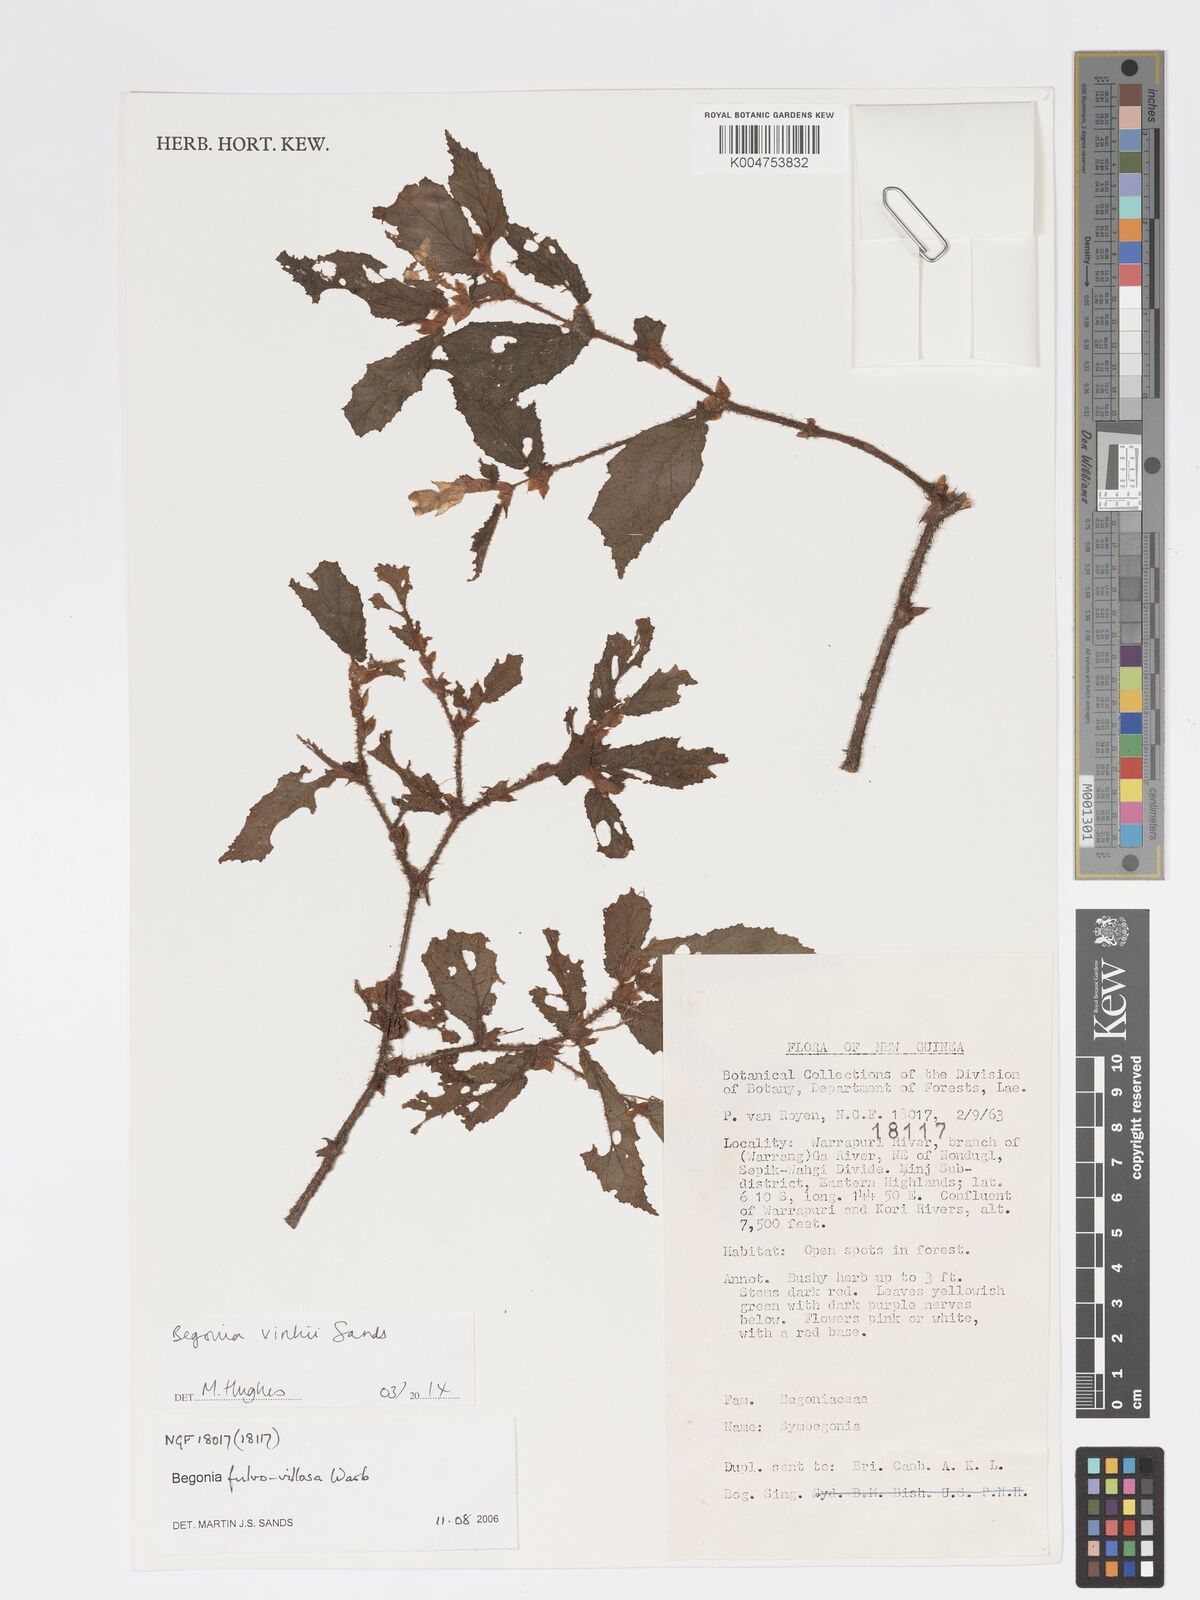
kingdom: Plantae
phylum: Tracheophyta
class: Magnoliopsida
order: Cucurbitales
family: Begoniaceae
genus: Begonia
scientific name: Begonia vinkii
